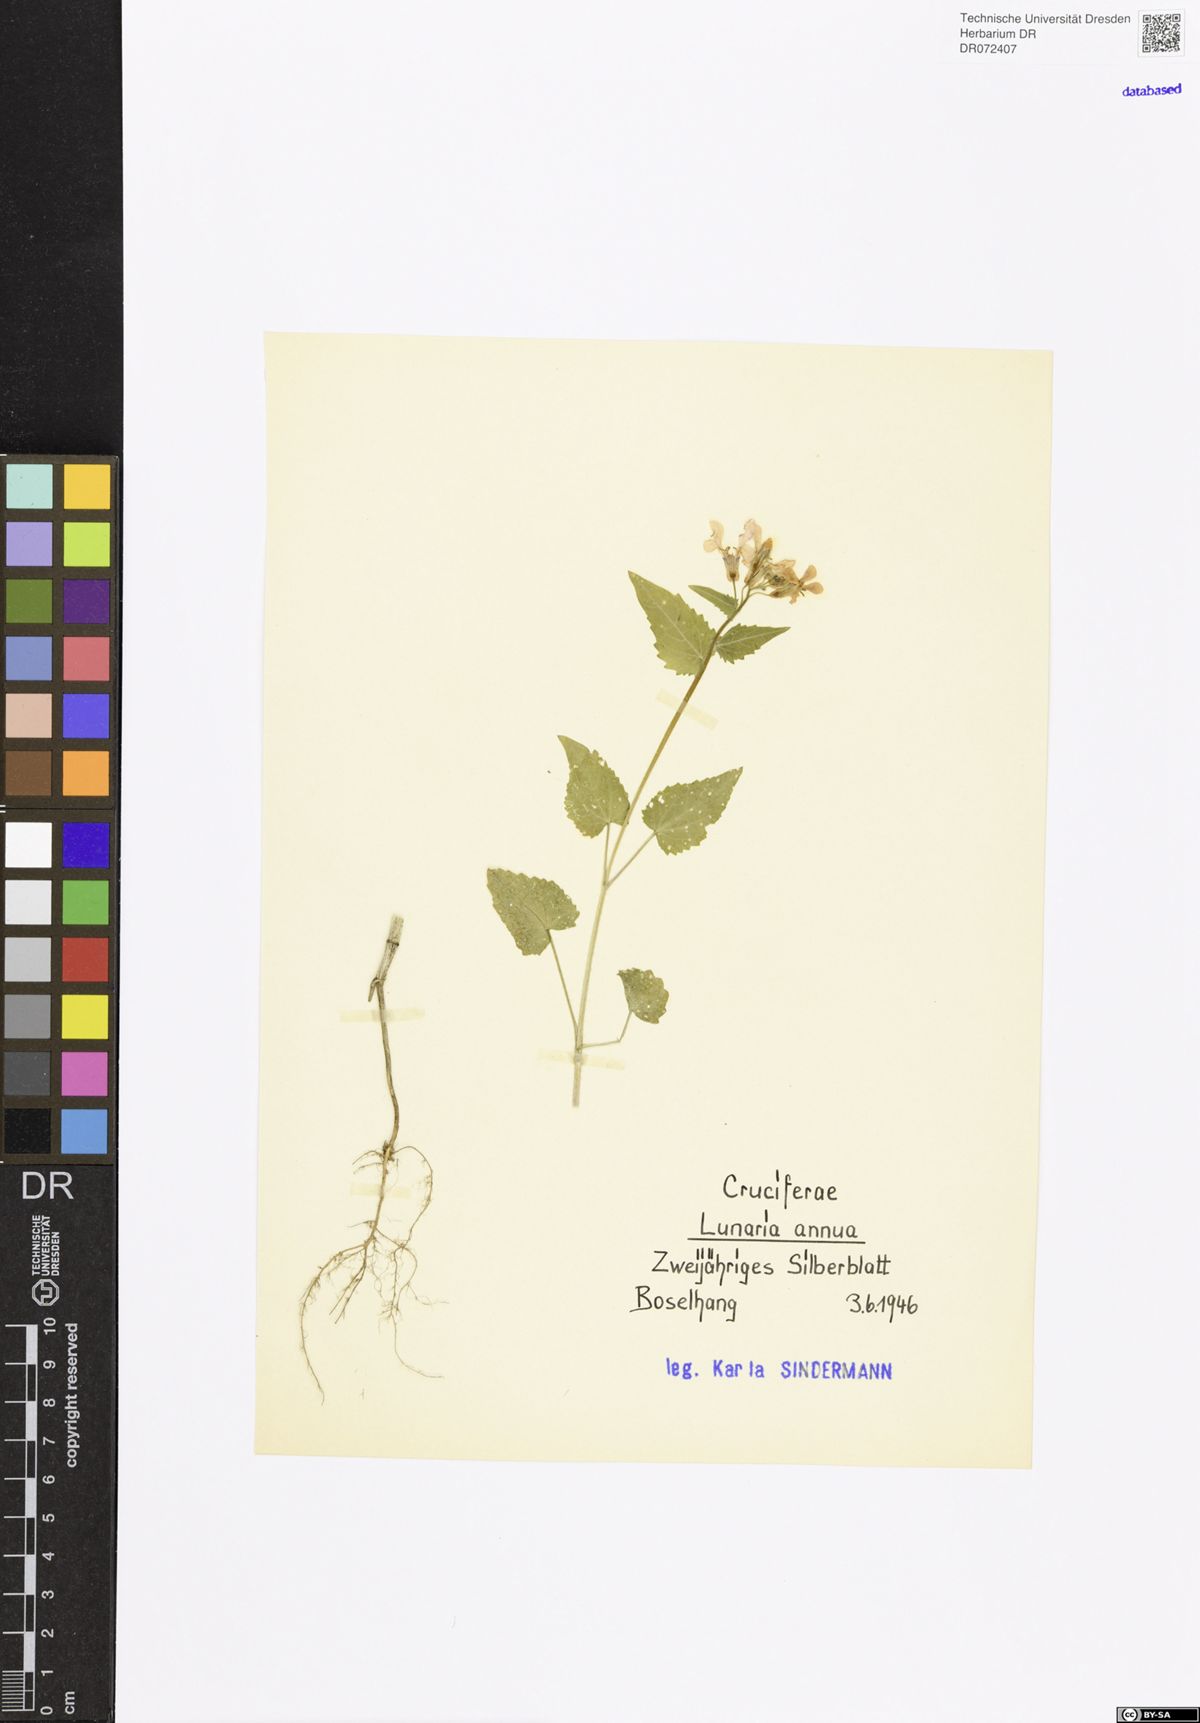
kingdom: Plantae
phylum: Tracheophyta
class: Magnoliopsida
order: Brassicales
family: Brassicaceae
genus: Lunaria
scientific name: Lunaria annua
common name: Honesty
